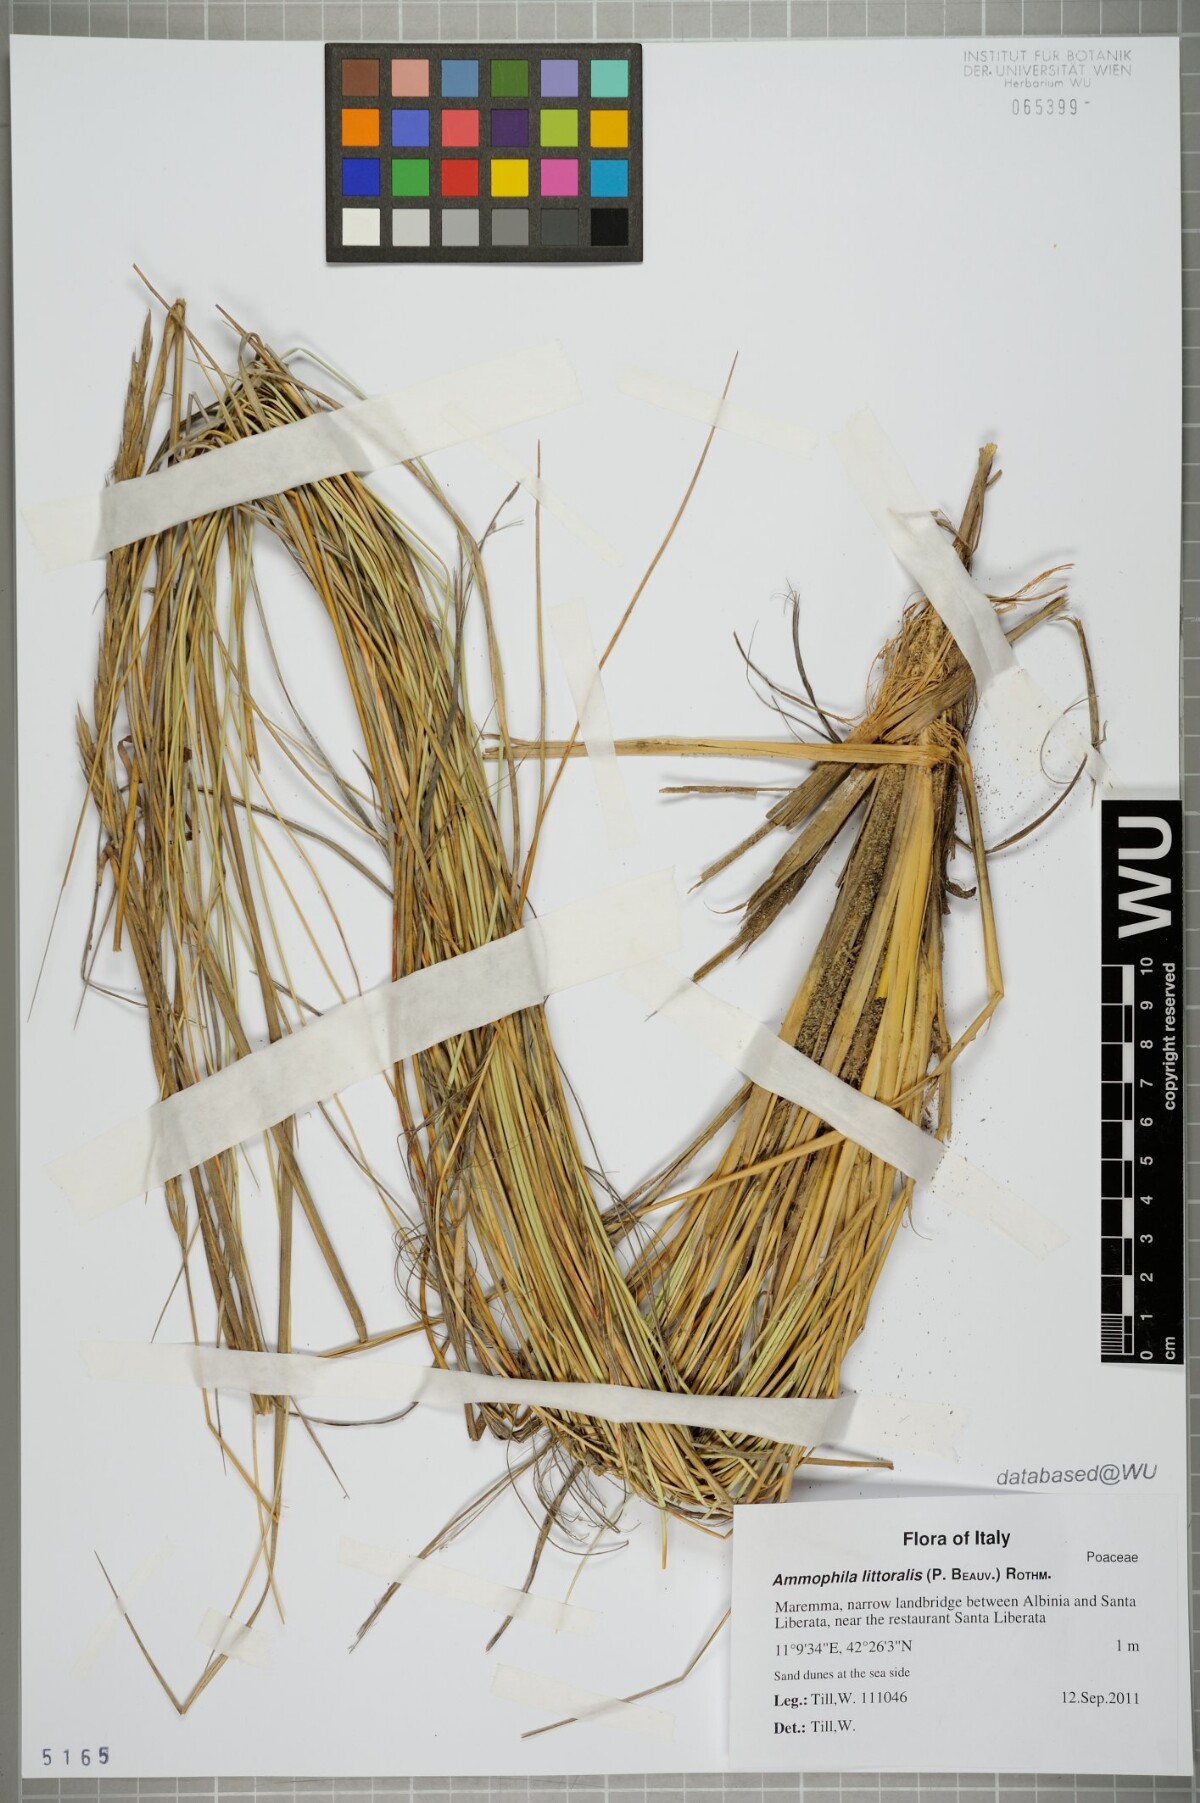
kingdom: Plantae
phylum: Tracheophyta
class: Liliopsida
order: Poales
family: Poaceae
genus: Calamagrostis
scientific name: Calamagrostis arenaria
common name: European beachgrass
